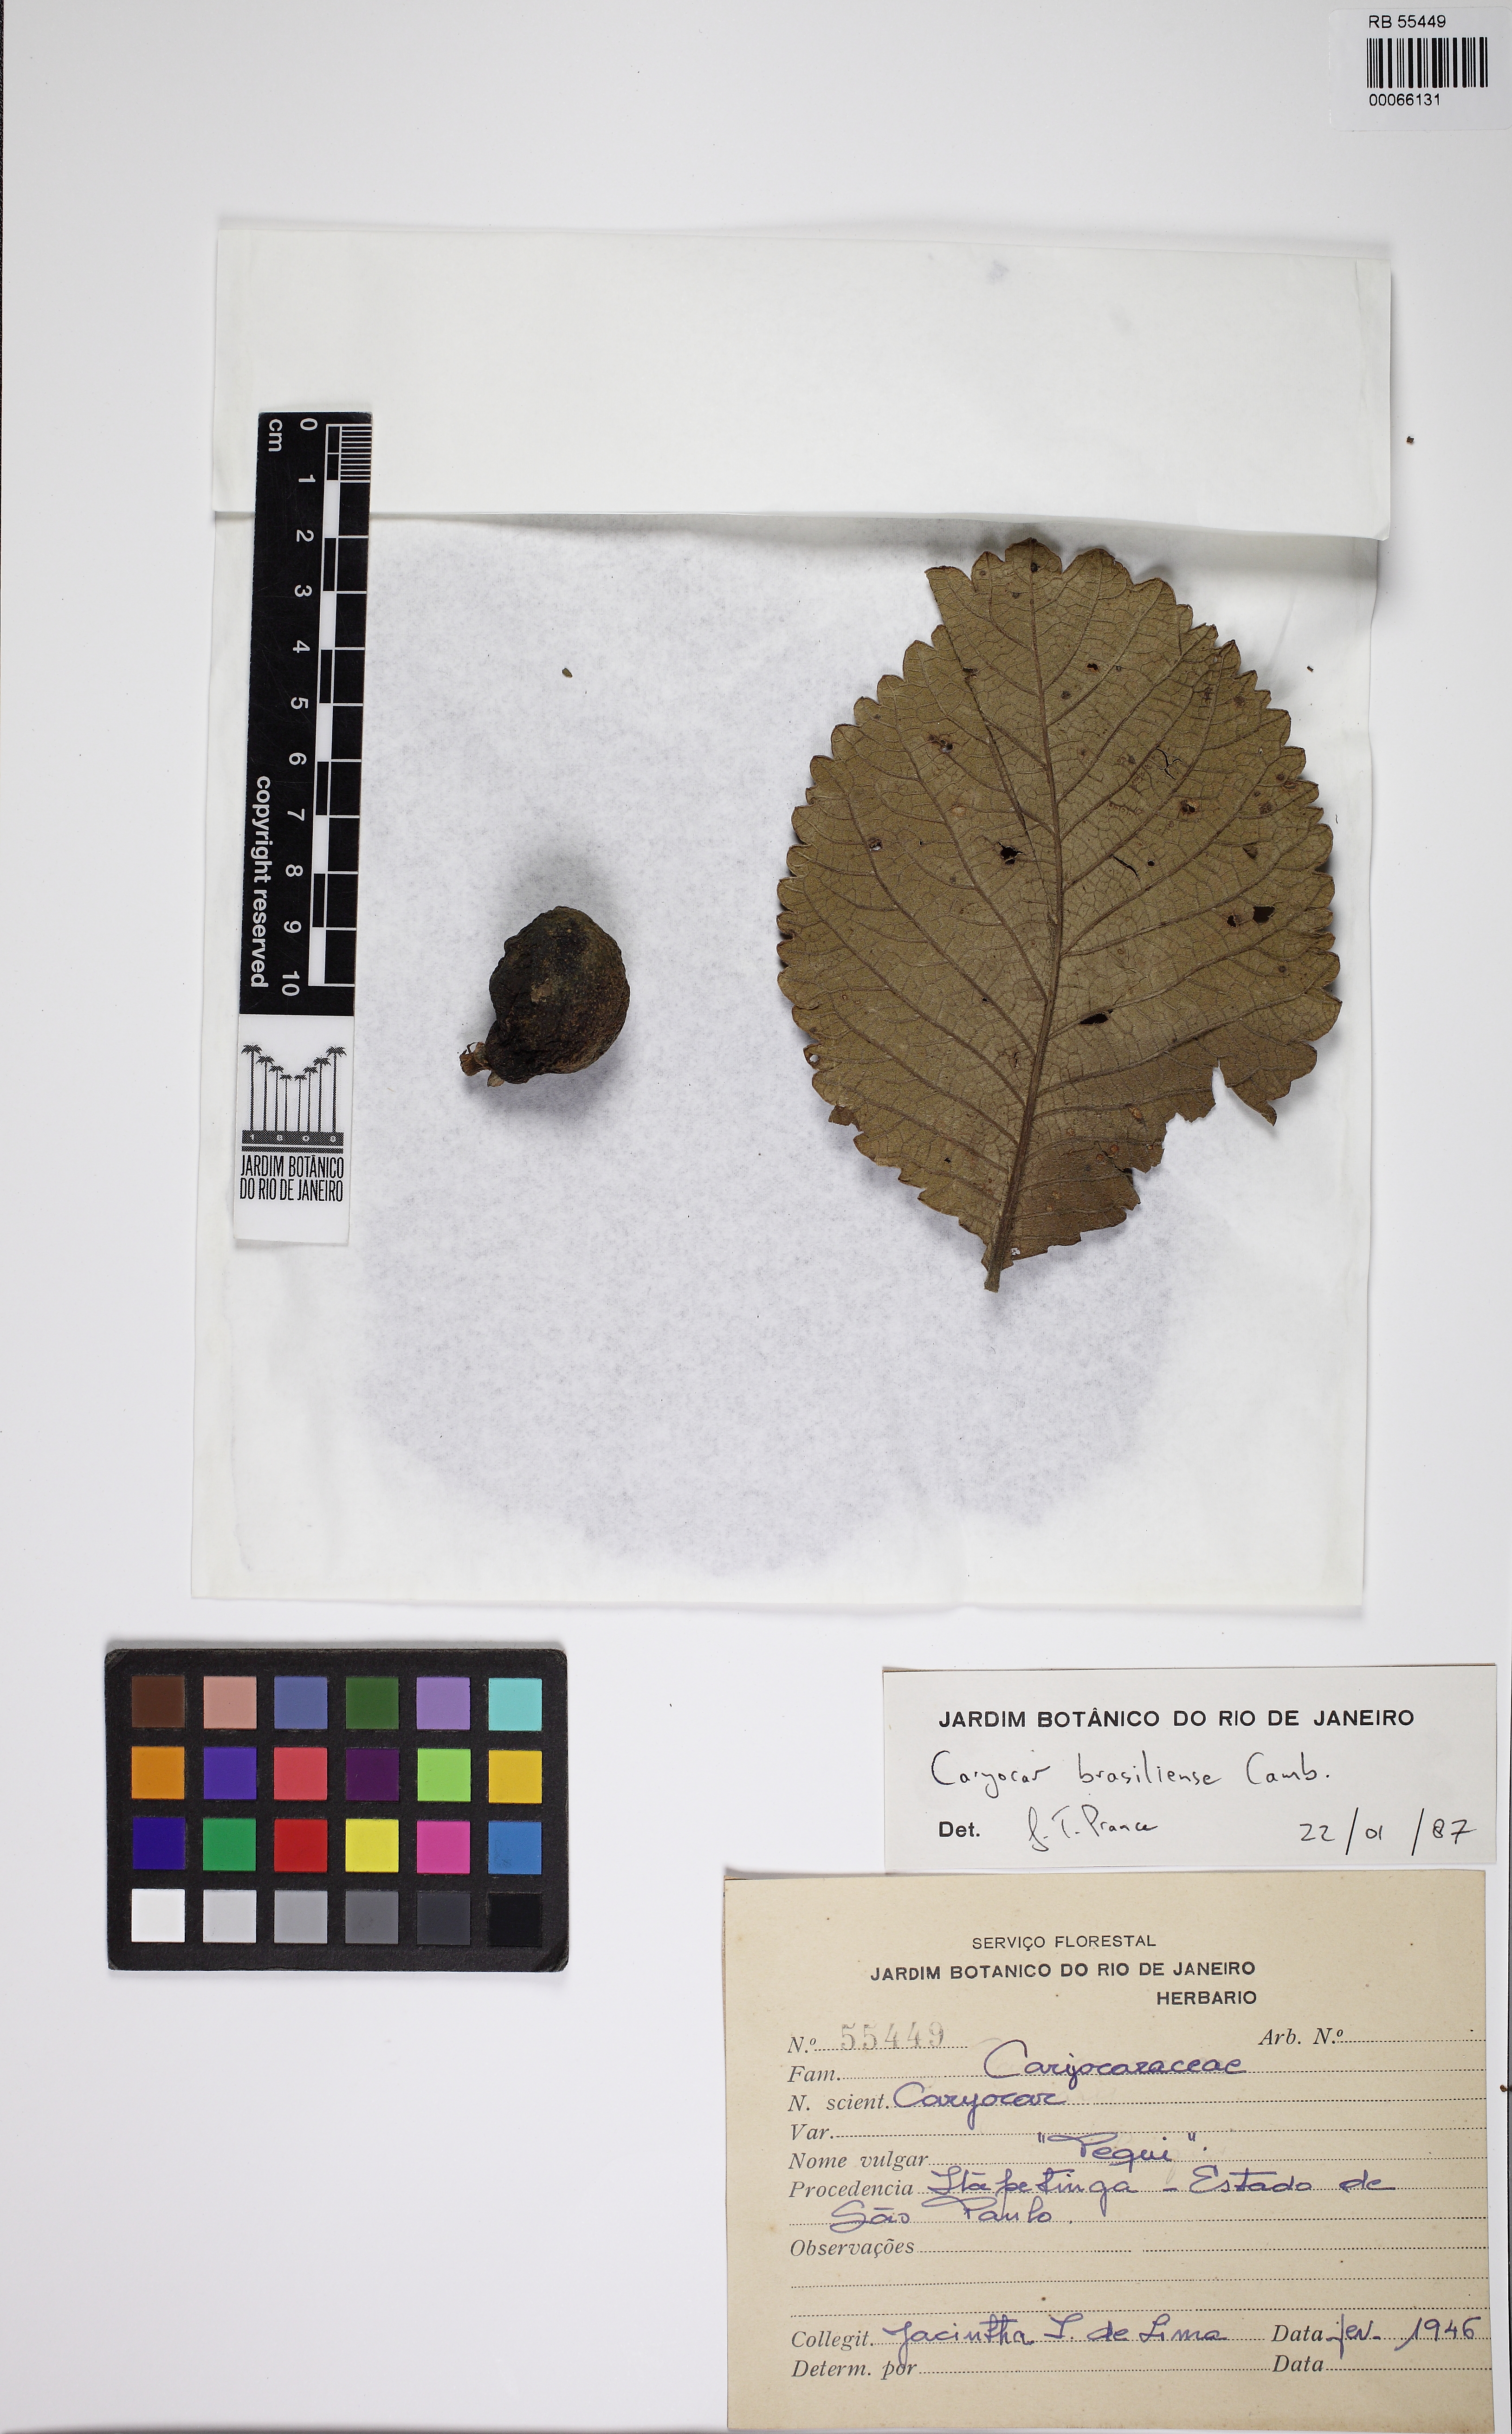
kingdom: Plantae
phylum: Tracheophyta
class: Magnoliopsida
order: Malpighiales
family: Caryocaraceae
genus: Caryocar
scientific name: Caryocar brasiliense
